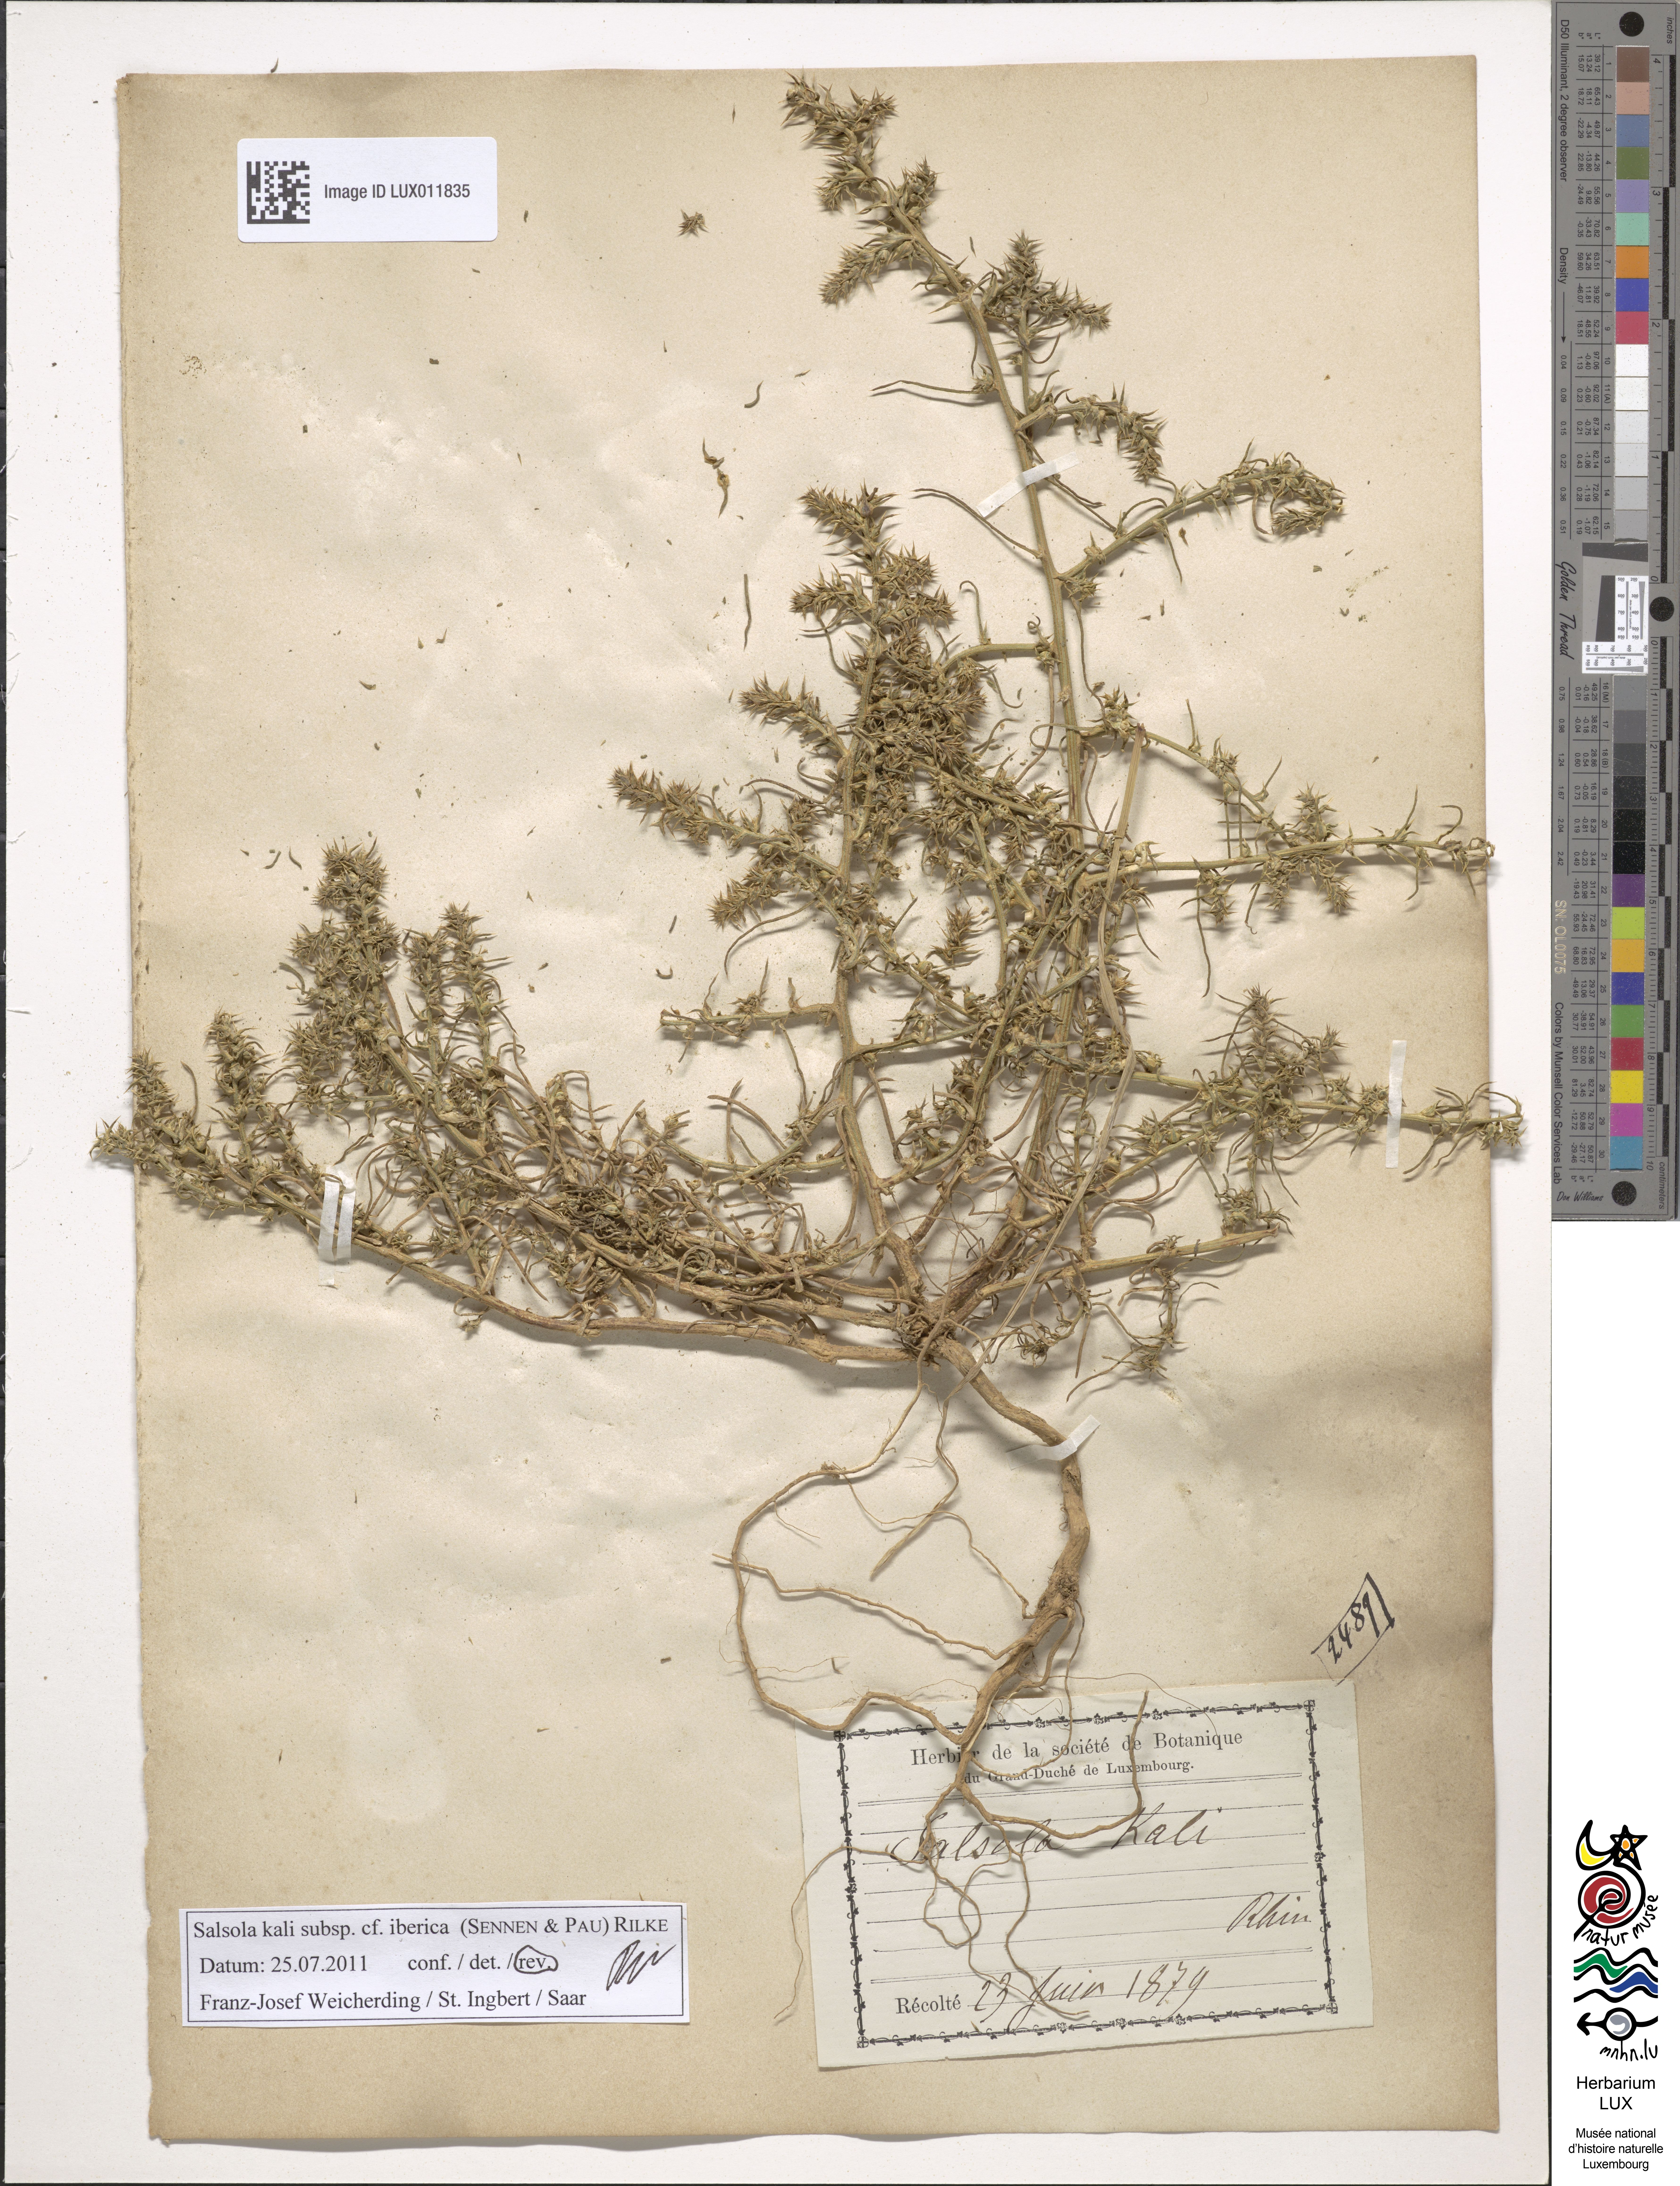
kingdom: Plantae
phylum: Tracheophyta
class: Magnoliopsida
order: Caryophyllales
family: Amaranthaceae
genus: Salsola
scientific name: Salsola tragus
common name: Prickly russian thistle
